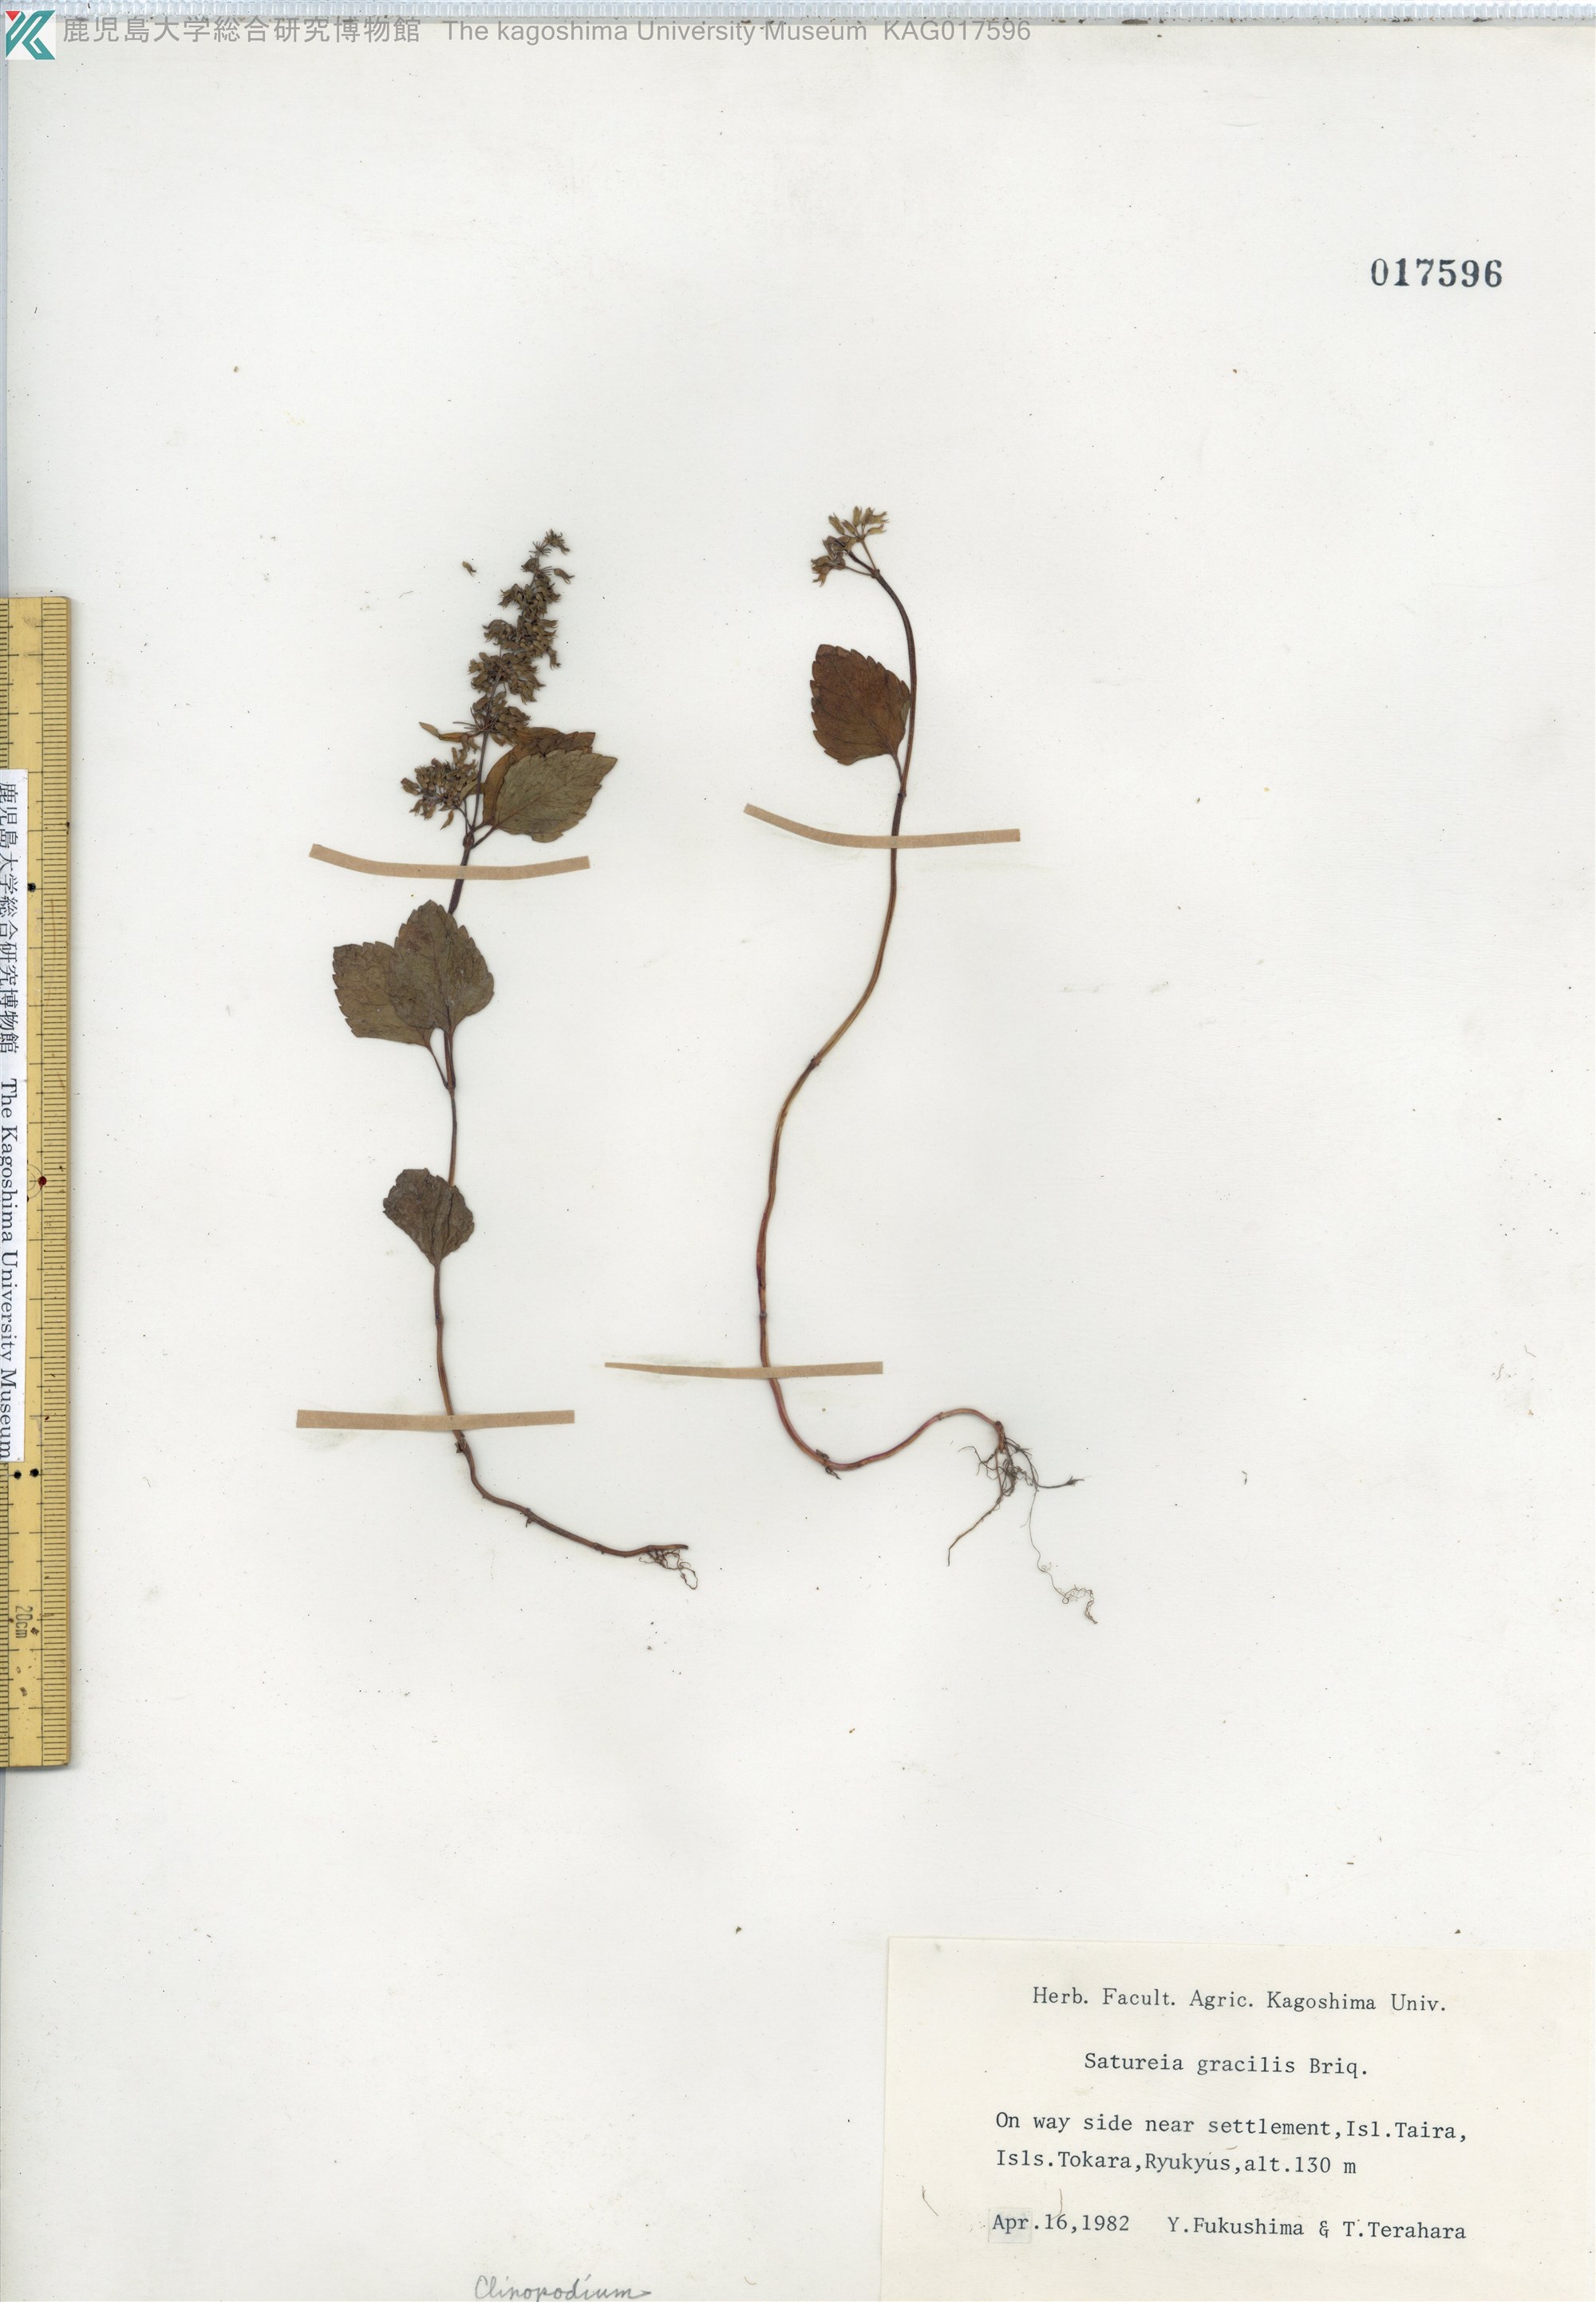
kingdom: Plantae
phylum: Tracheophyta
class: Magnoliopsida
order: Lamiales
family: Lamiaceae
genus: Clinopodium
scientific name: Clinopodium gracile
